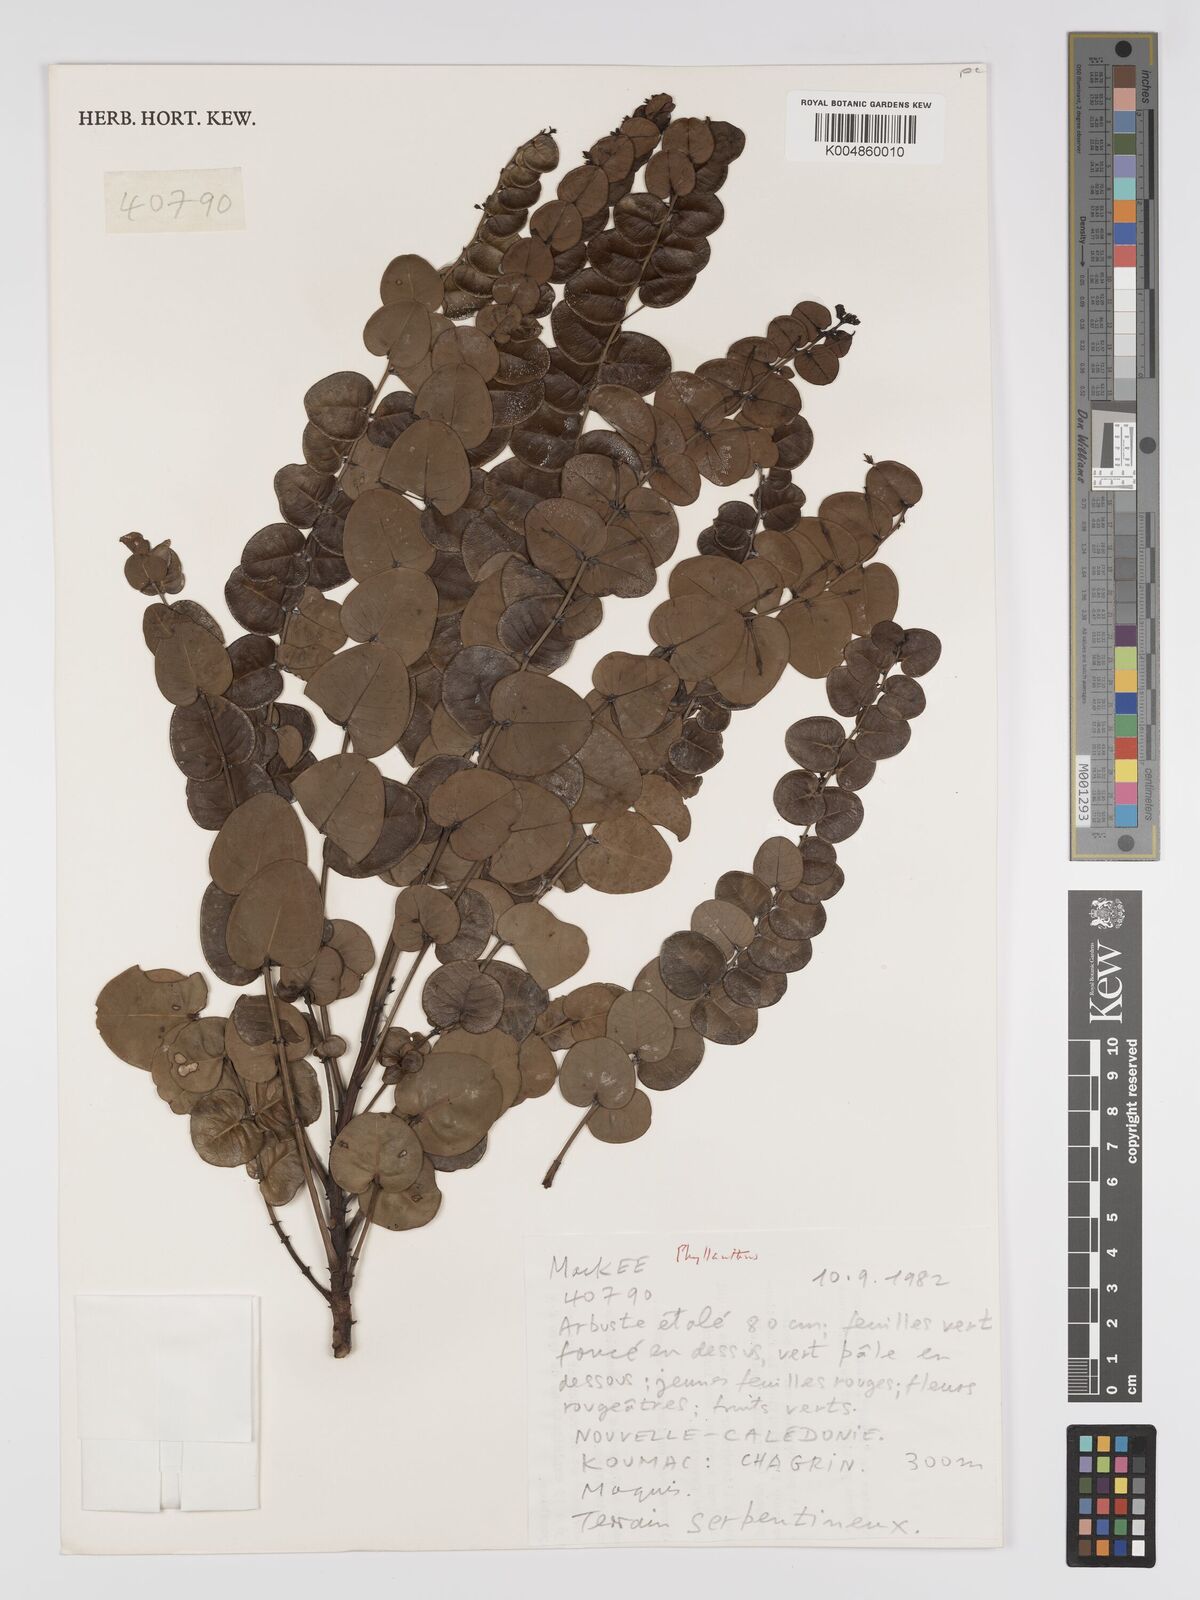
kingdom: Plantae
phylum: Tracheophyta
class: Magnoliopsida
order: Malpighiales
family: Phyllanthaceae
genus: Phyllanthus
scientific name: Phyllanthus
